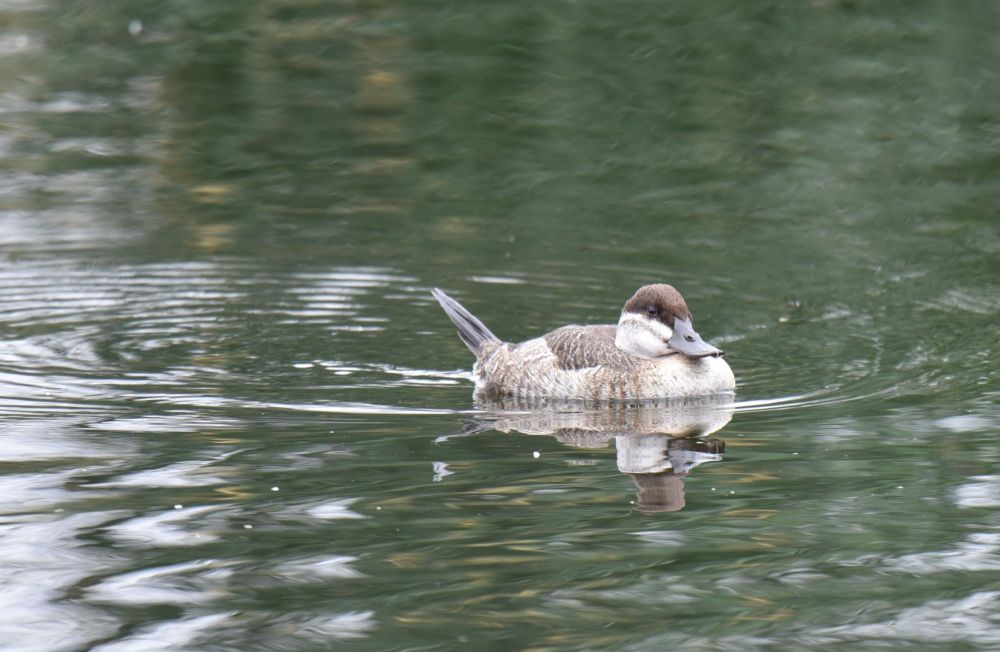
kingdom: Animalia
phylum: Chordata
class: Aves
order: Anseriformes
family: Anatidae
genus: Oxyura
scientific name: Oxyura jamaicensis
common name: Ruddy duck
